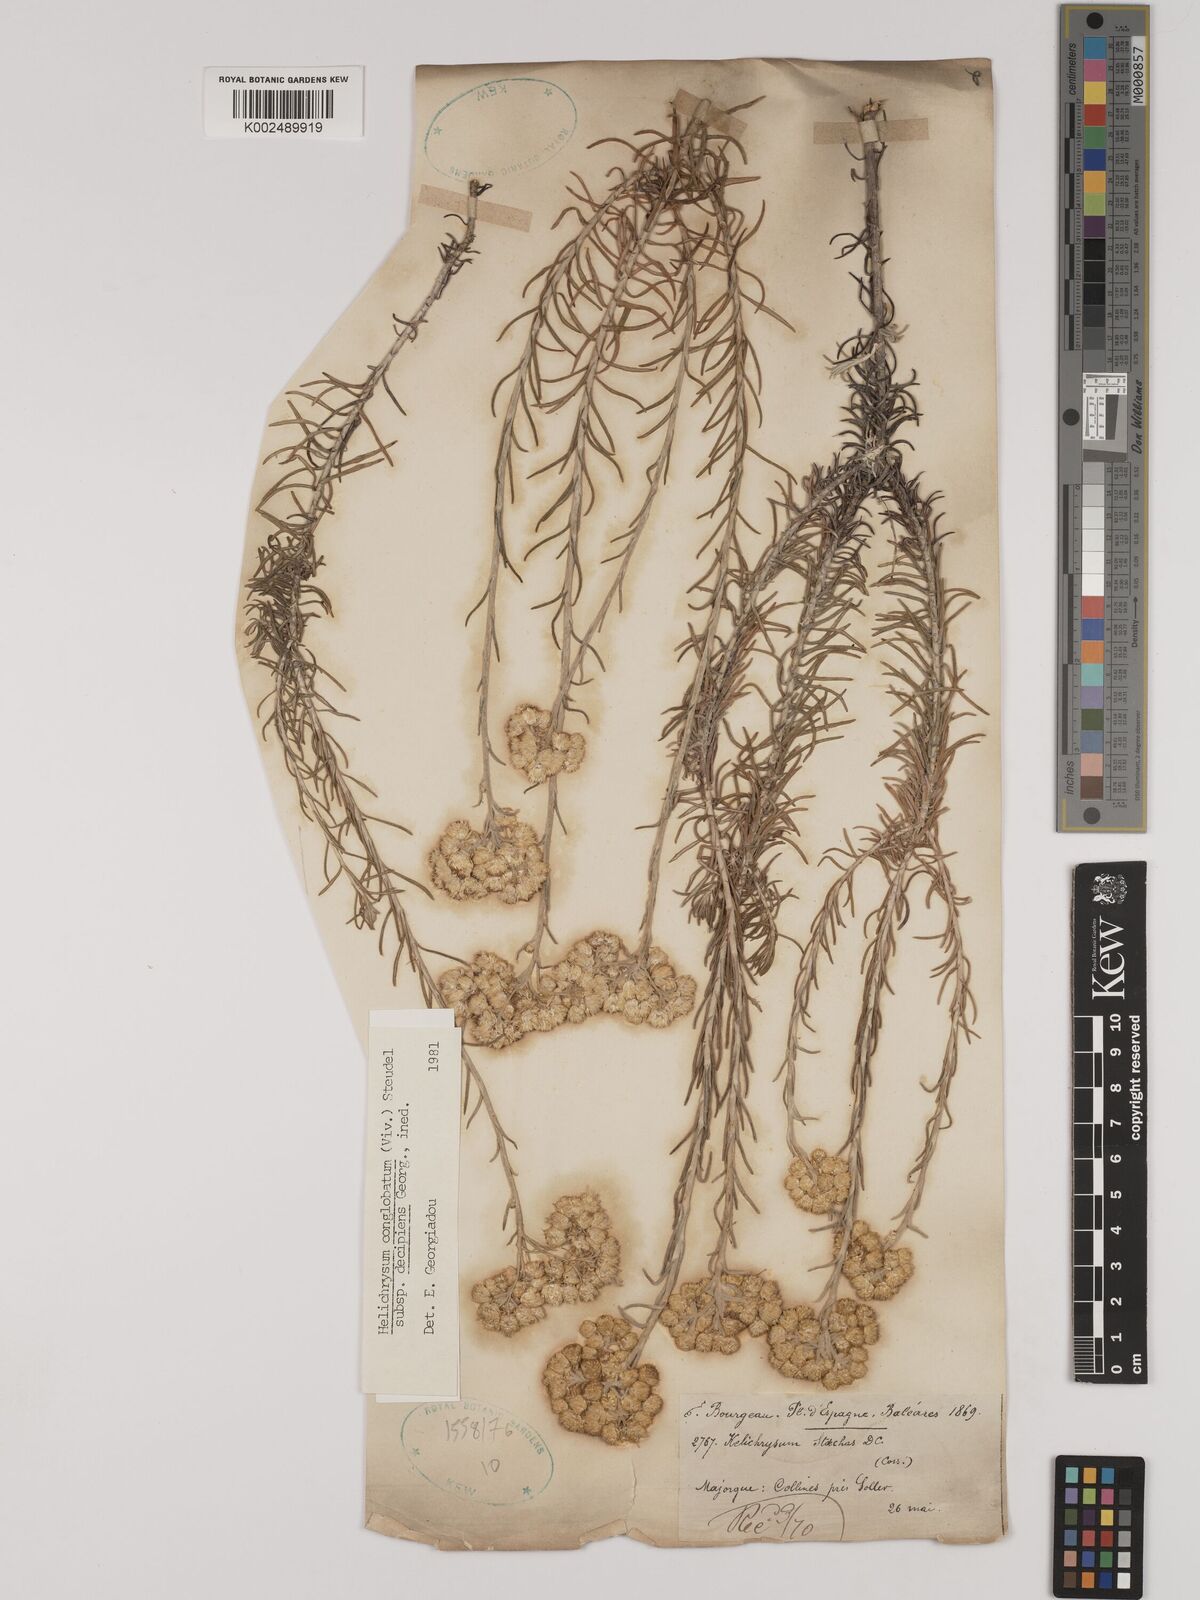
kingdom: Plantae
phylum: Tracheophyta
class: Magnoliopsida
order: Asterales
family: Asteraceae
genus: Helichrysum
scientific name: Helichrysum stoechas
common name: Goldilocks
